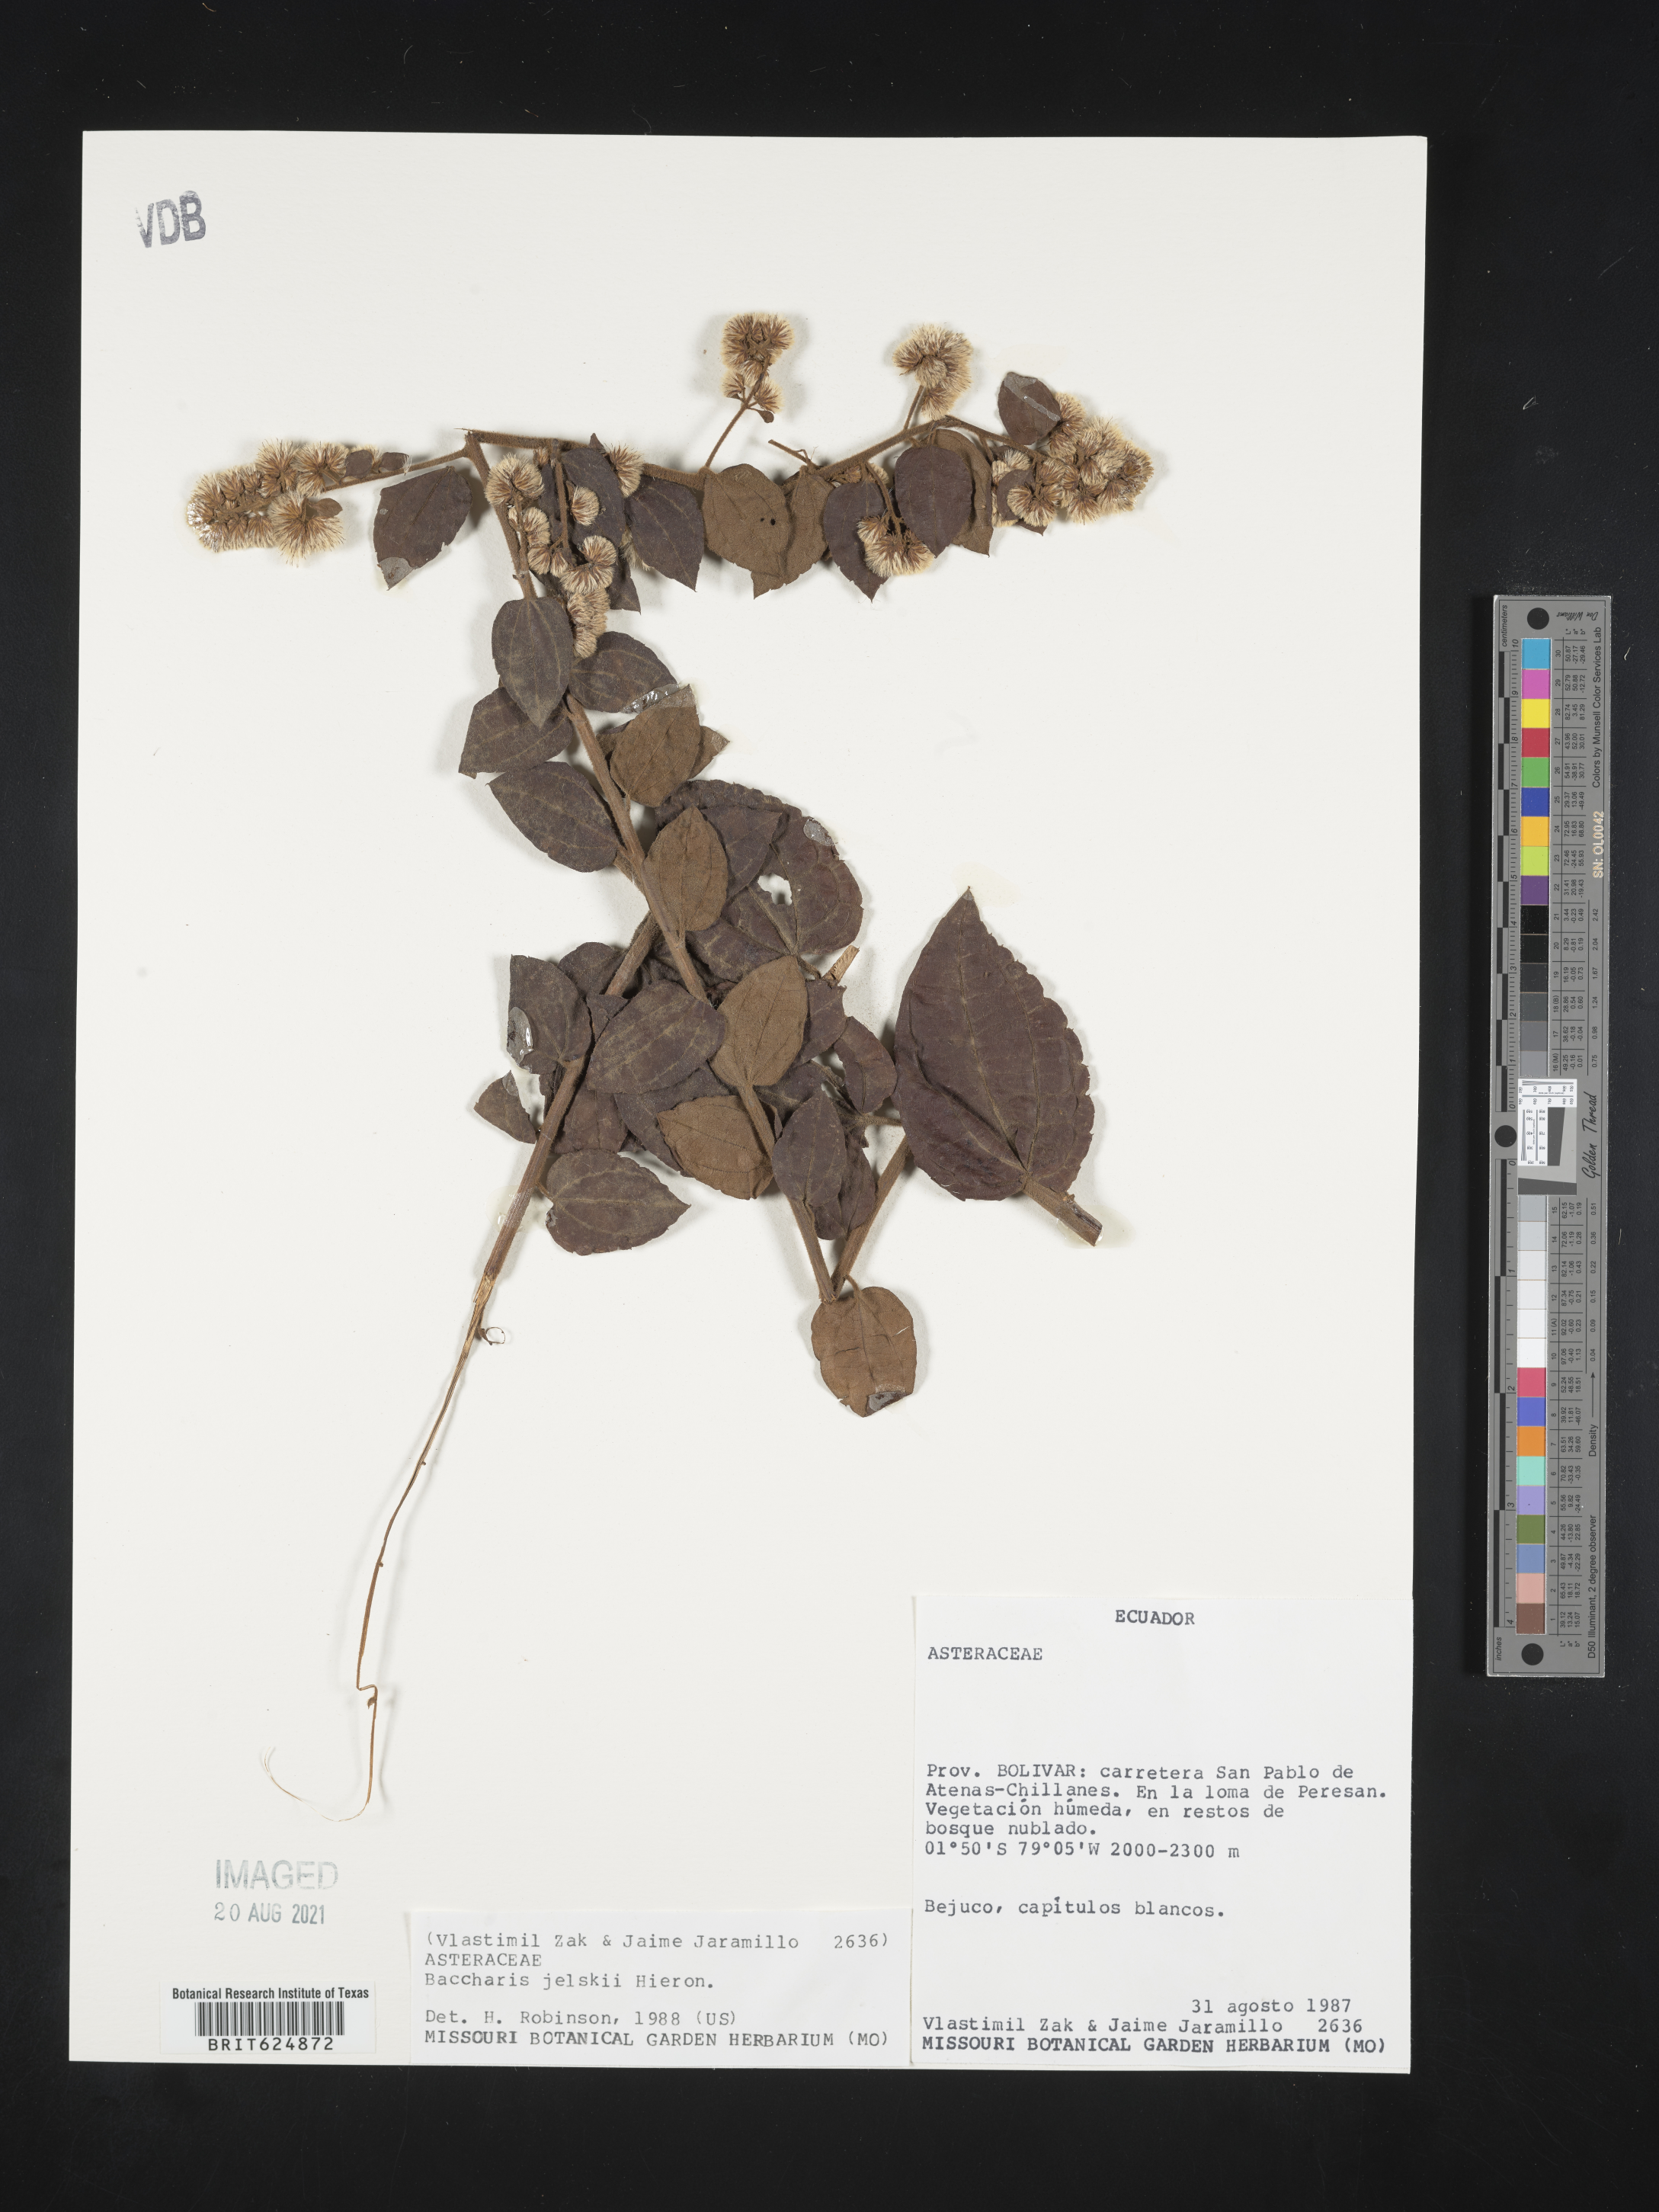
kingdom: Plantae
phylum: Tracheophyta
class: Magnoliopsida
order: Asterales
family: Asteraceae
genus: Baccharis
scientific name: Baccharis jelskii
